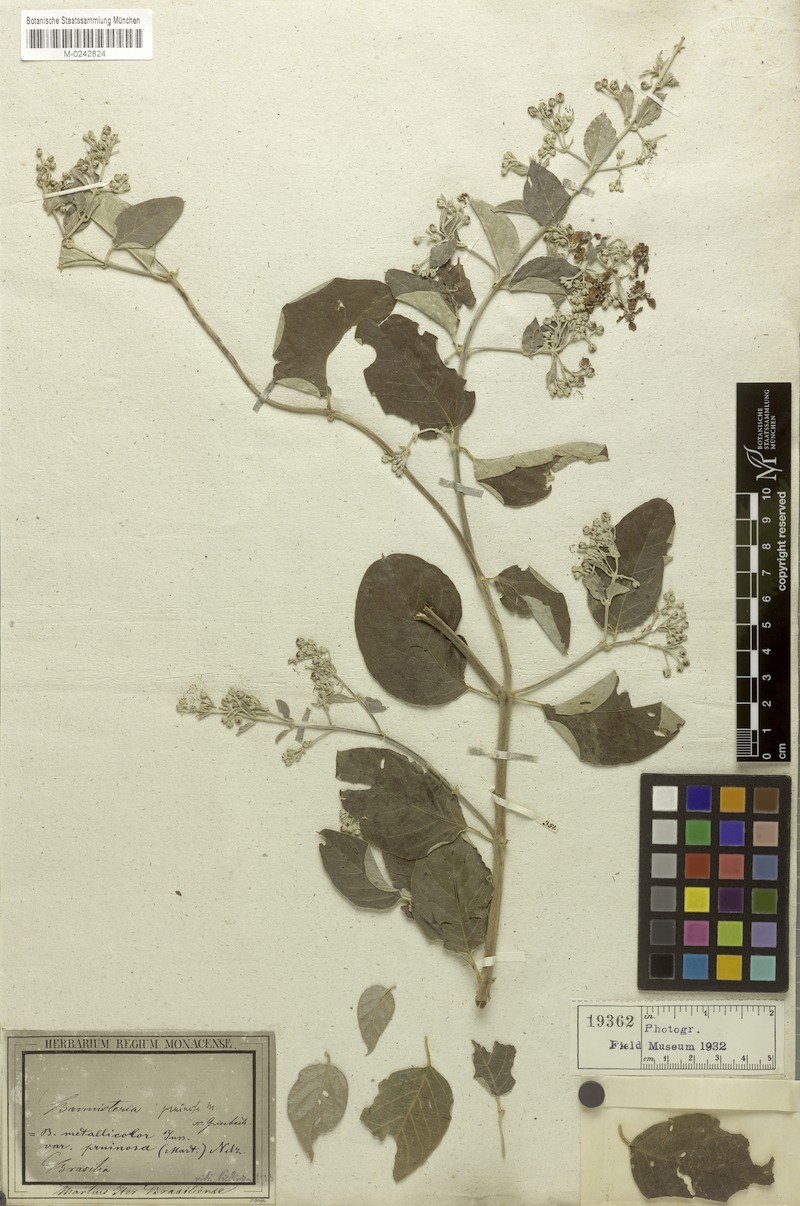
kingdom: Plantae
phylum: Tracheophyta
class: Magnoliopsida
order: Malpighiales
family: Malpighiaceae
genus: Banisteriopsis
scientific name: Banisteriopsis muricata
